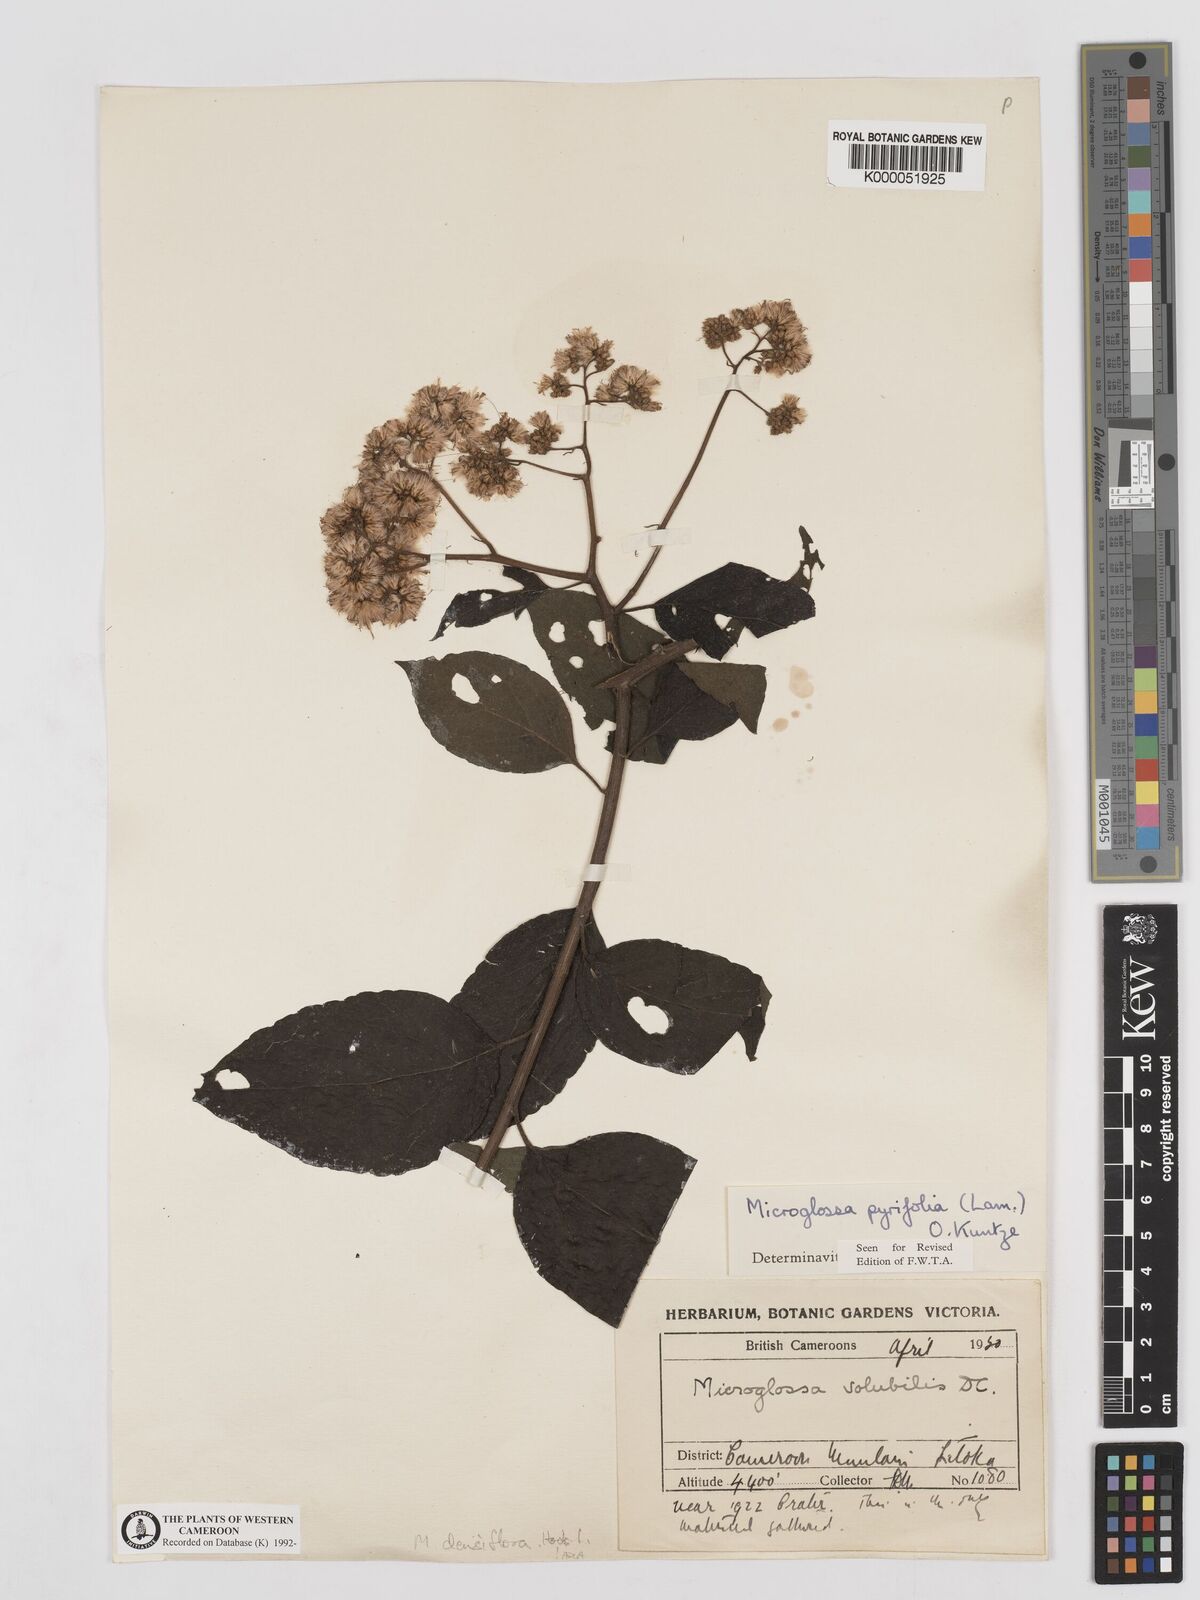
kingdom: Plantae
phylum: Tracheophyta
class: Magnoliopsida
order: Asterales
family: Asteraceae
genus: Microglossa
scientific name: Microglossa densiflora
